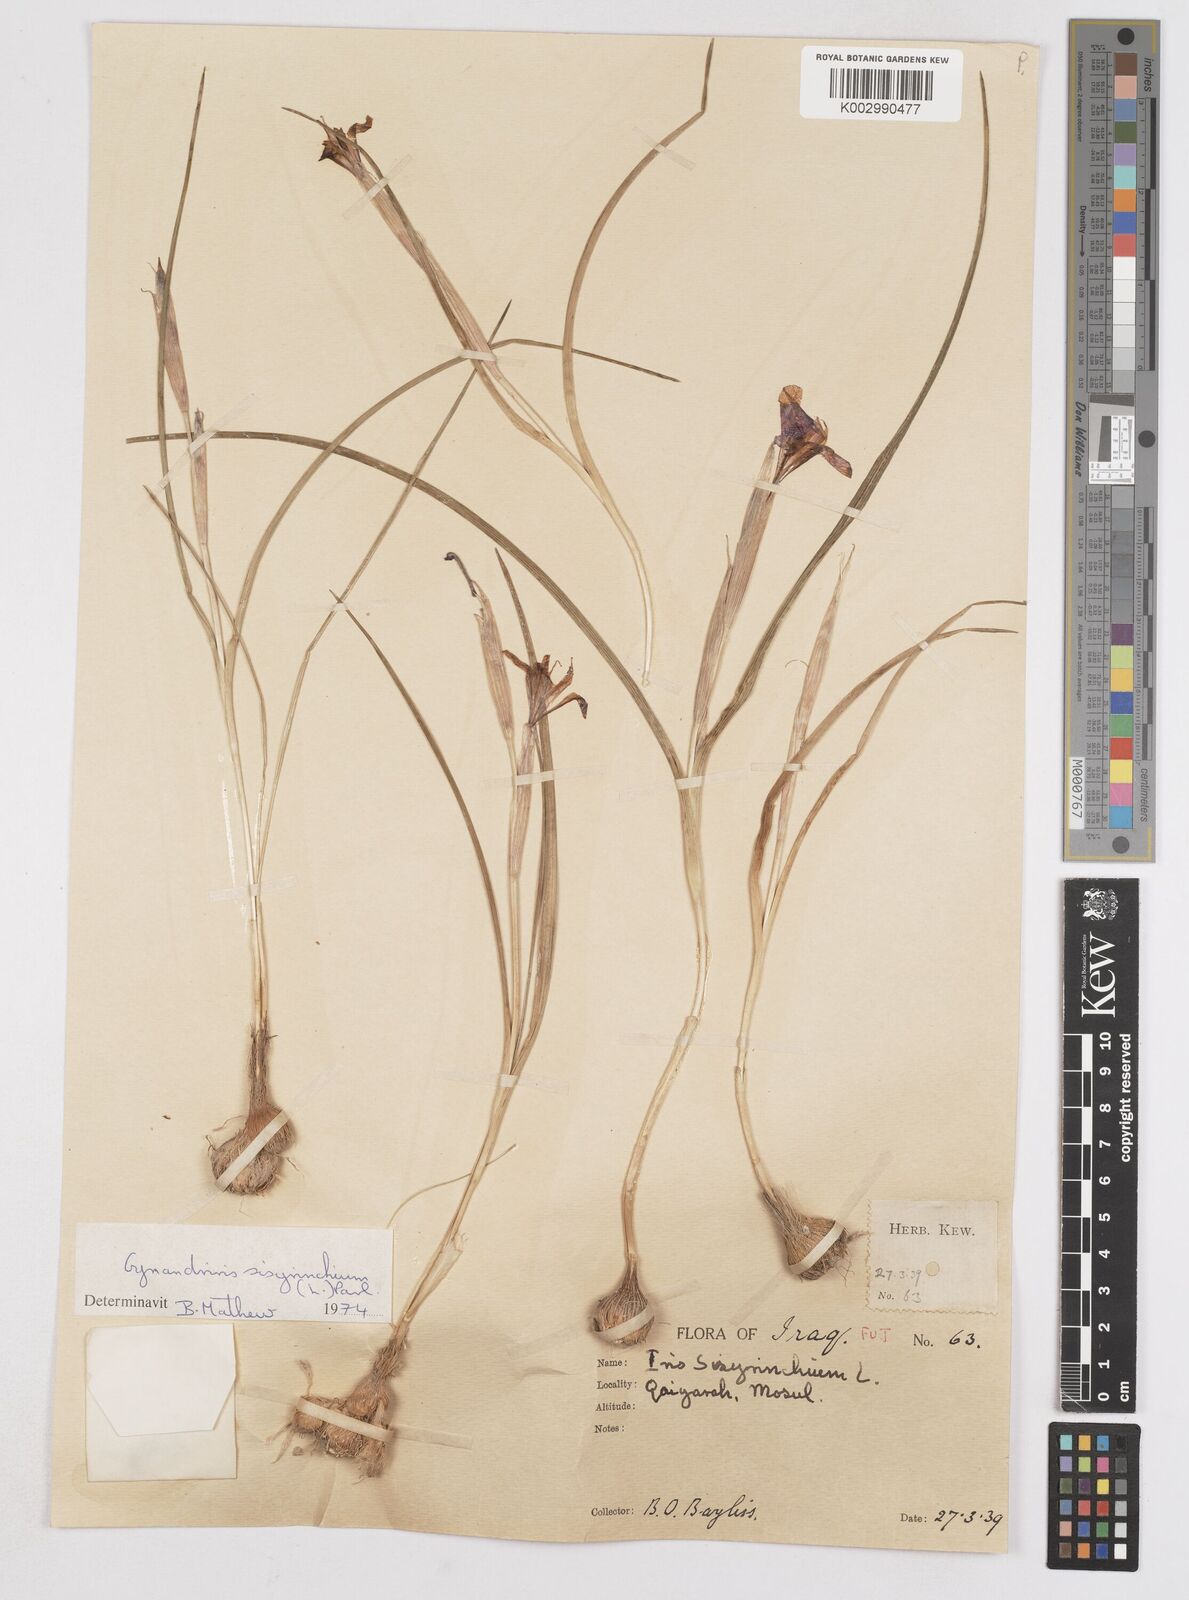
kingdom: Plantae
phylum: Tracheophyta
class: Liliopsida
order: Asparagales
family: Iridaceae
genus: Moraea
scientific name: Moraea sisyrinchium
